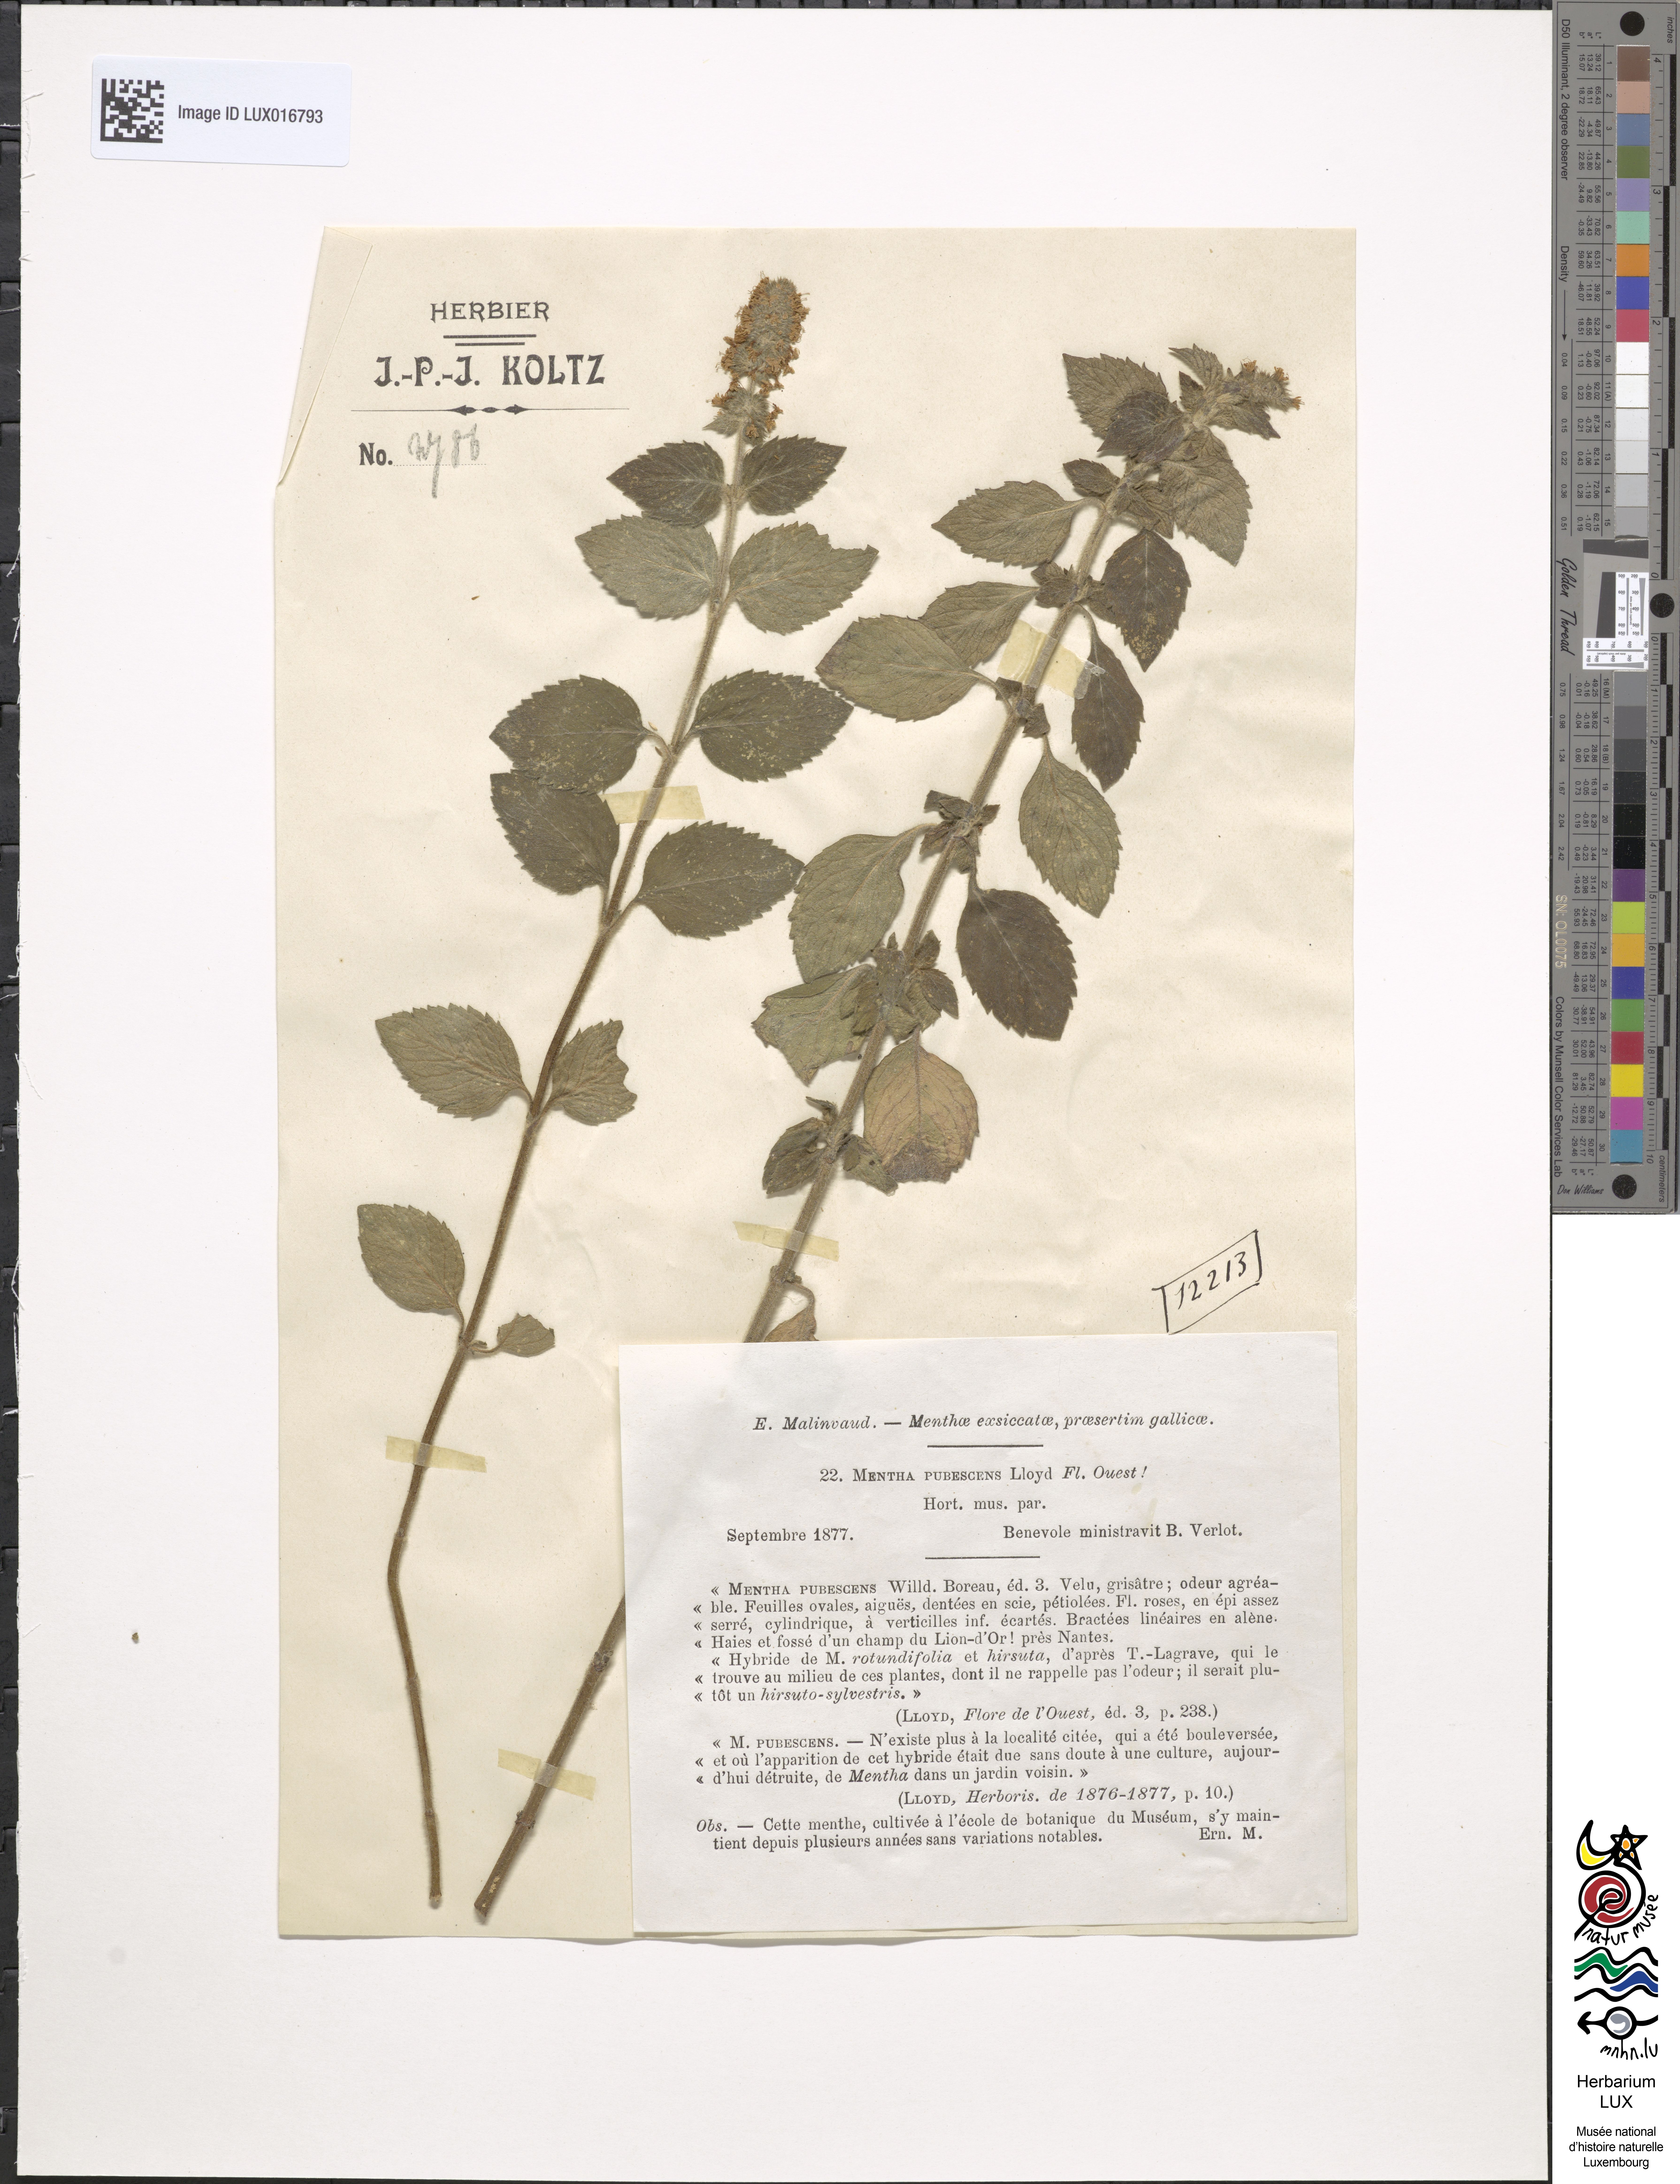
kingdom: Plantae
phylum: Tracheophyta
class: Magnoliopsida
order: Lamiales
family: Lamiaceae
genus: Mentha
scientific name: Mentha dumetorum
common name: Bush-loving mint
